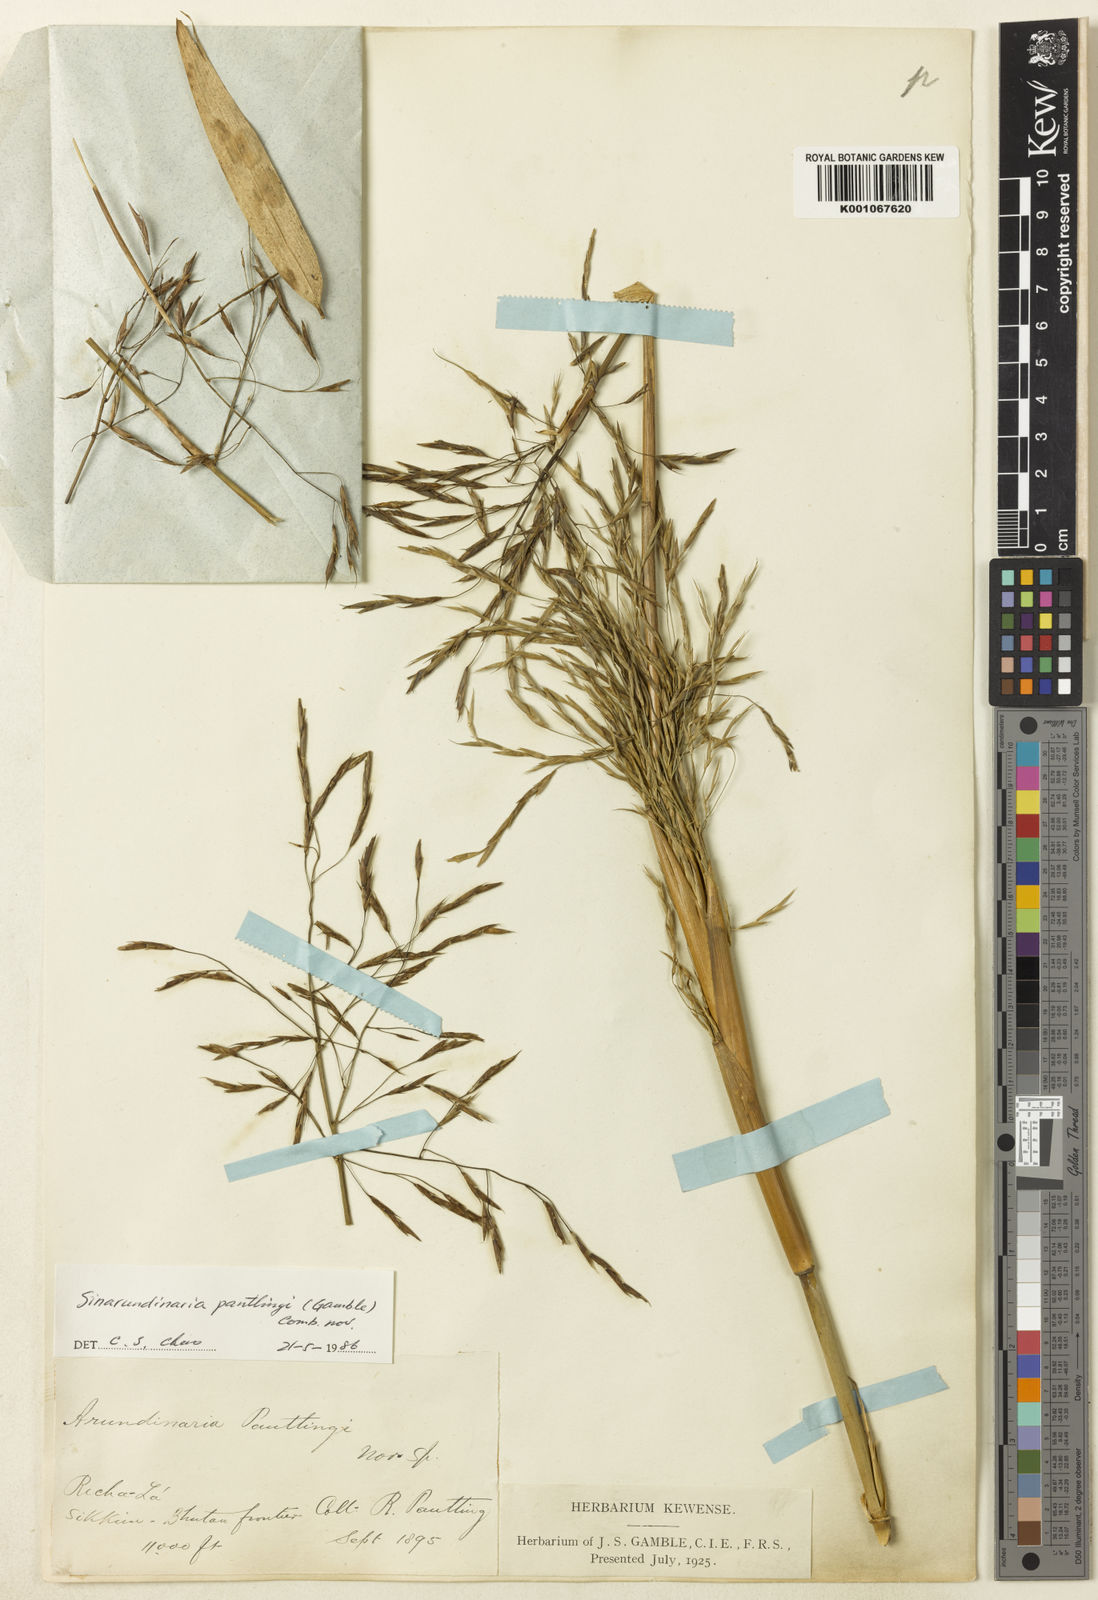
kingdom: Plantae
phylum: Tracheophyta
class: Liliopsida
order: Poales
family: Poaceae
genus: Yushania
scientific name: Yushania pantlingii
